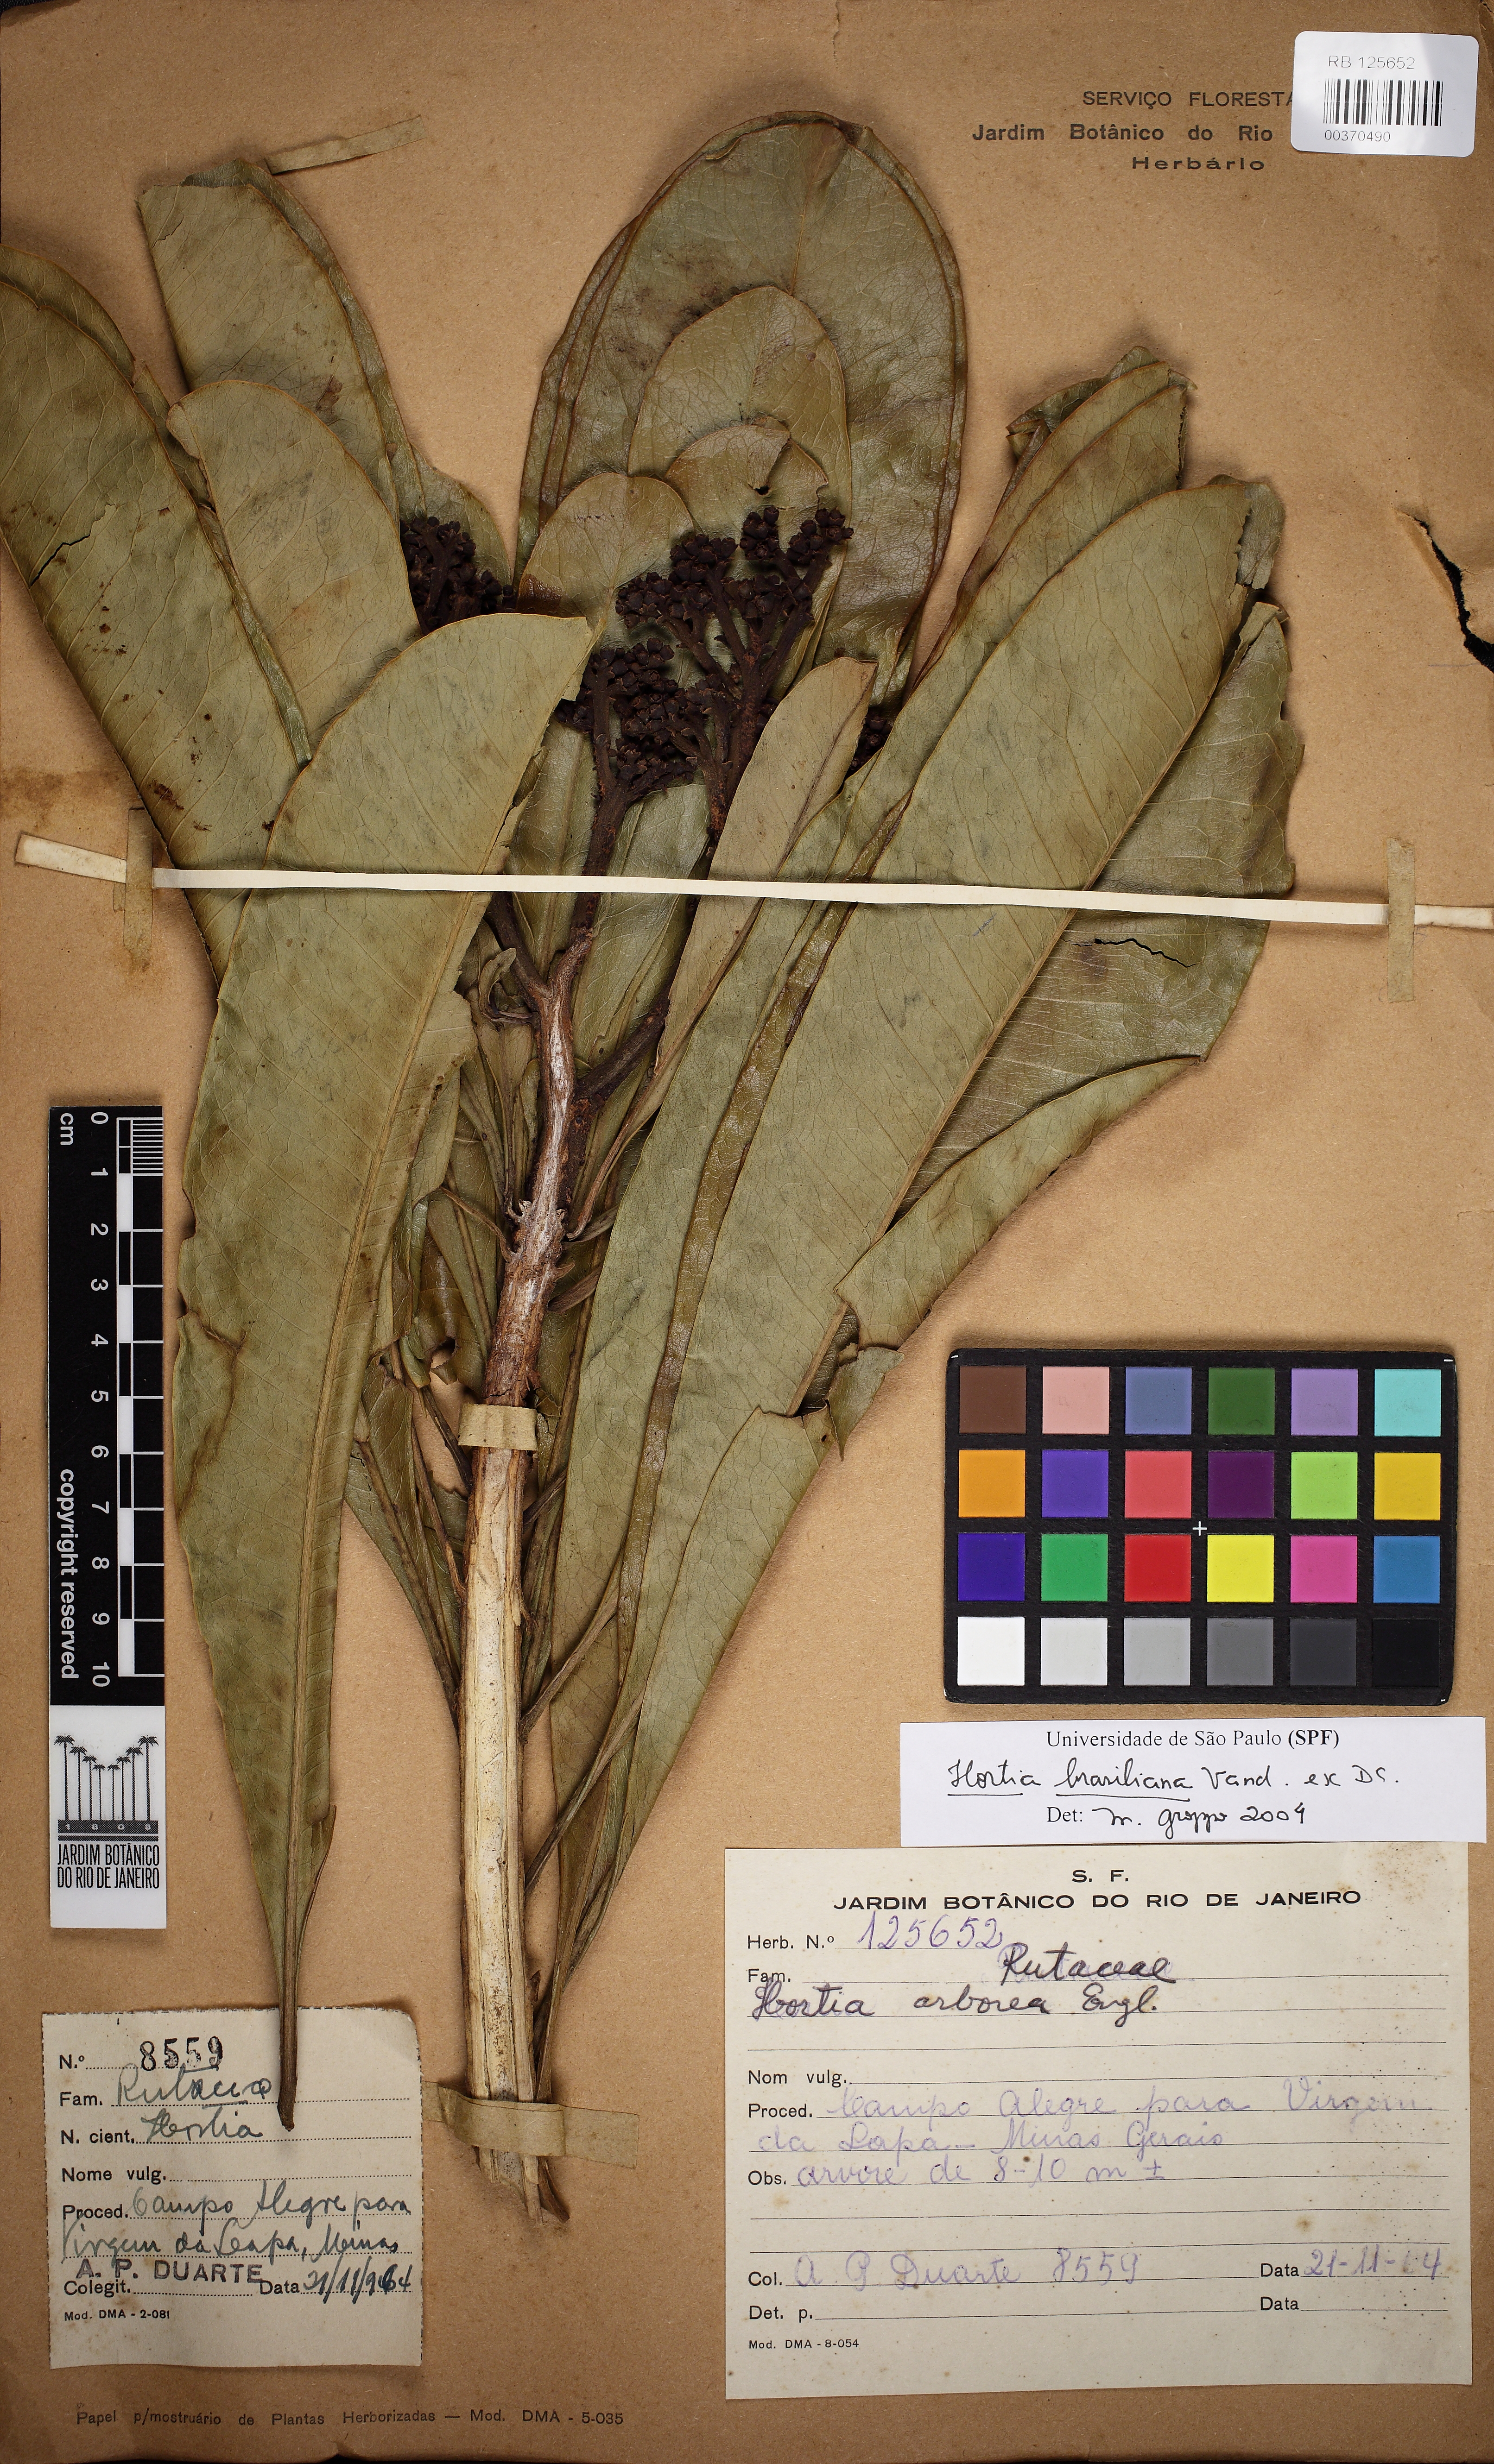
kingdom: Plantae
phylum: Tracheophyta
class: Magnoliopsida
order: Sapindales
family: Rutaceae
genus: Hortia
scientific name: Hortia brasiliana
